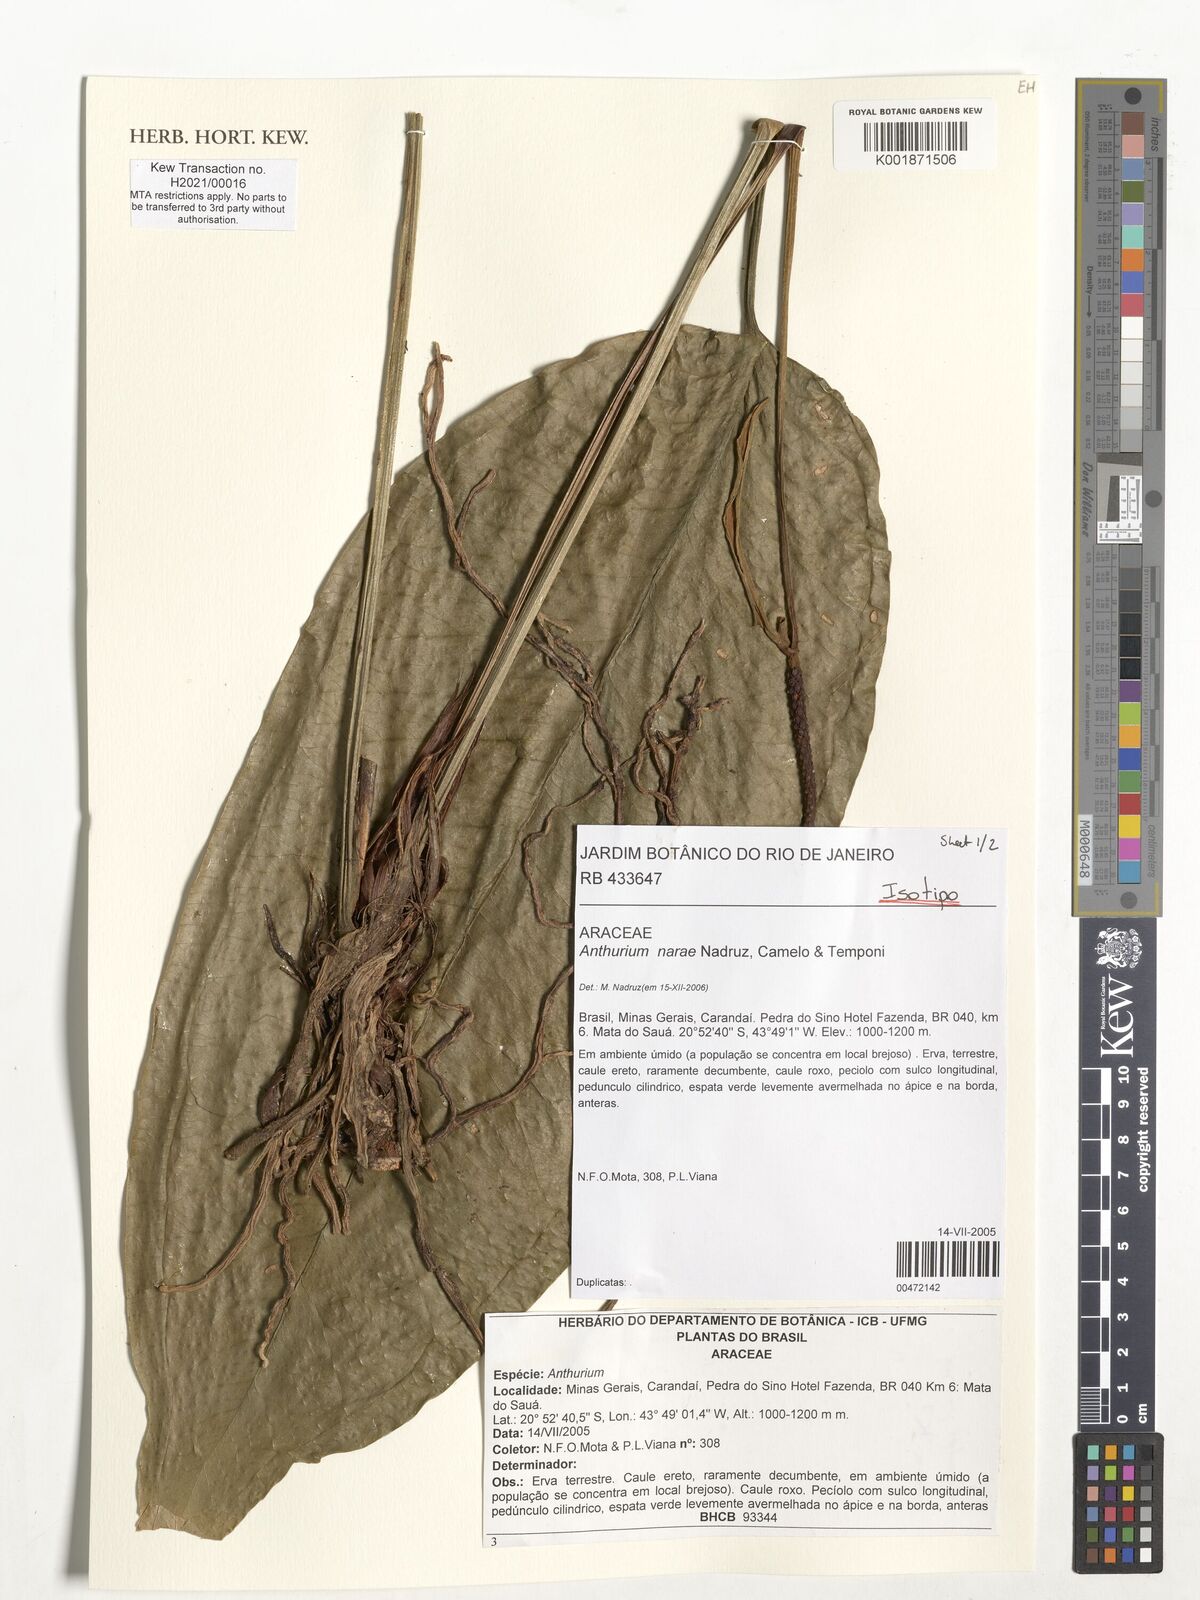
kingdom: Plantae
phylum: Tracheophyta
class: Liliopsida
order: Alismatales
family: Araceae
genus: Anthurium
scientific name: Anthurium narae
